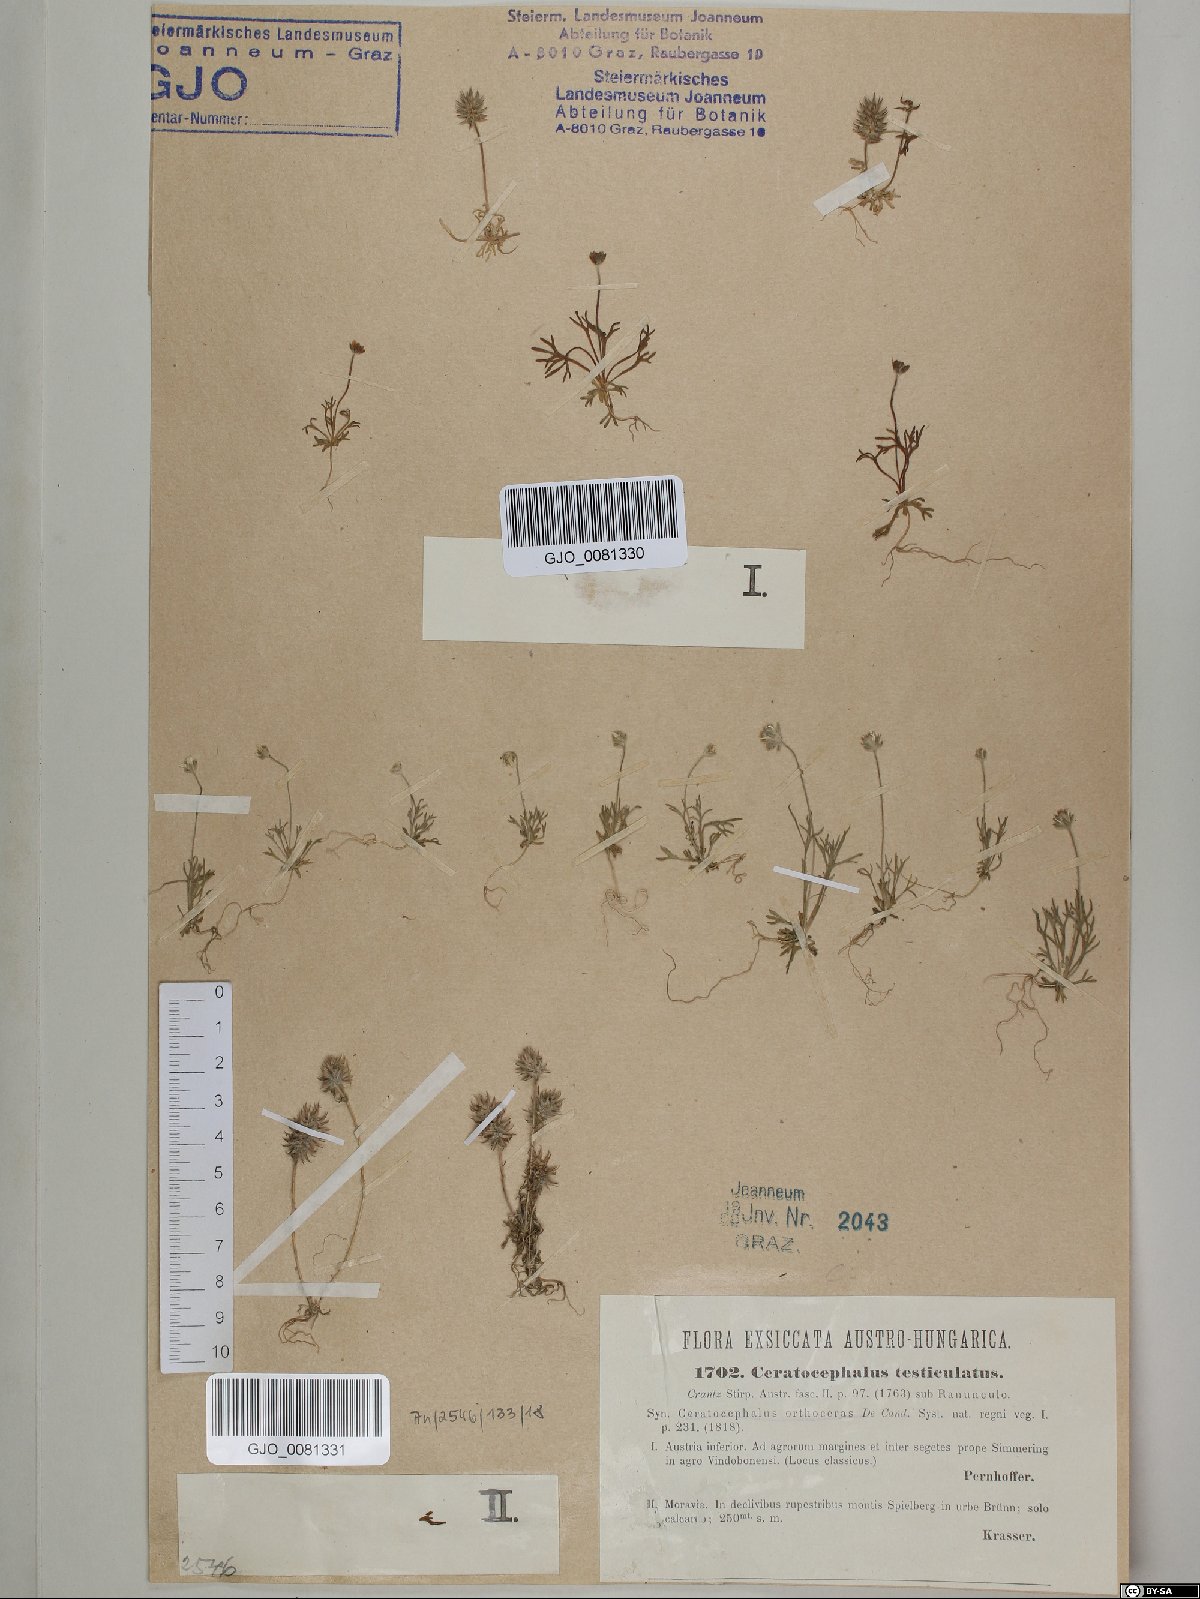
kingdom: Plantae
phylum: Tracheophyta
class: Magnoliopsida
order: Ranunculales
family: Ranunculaceae
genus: Ceratocephala
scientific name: Ceratocephala orthoceras
